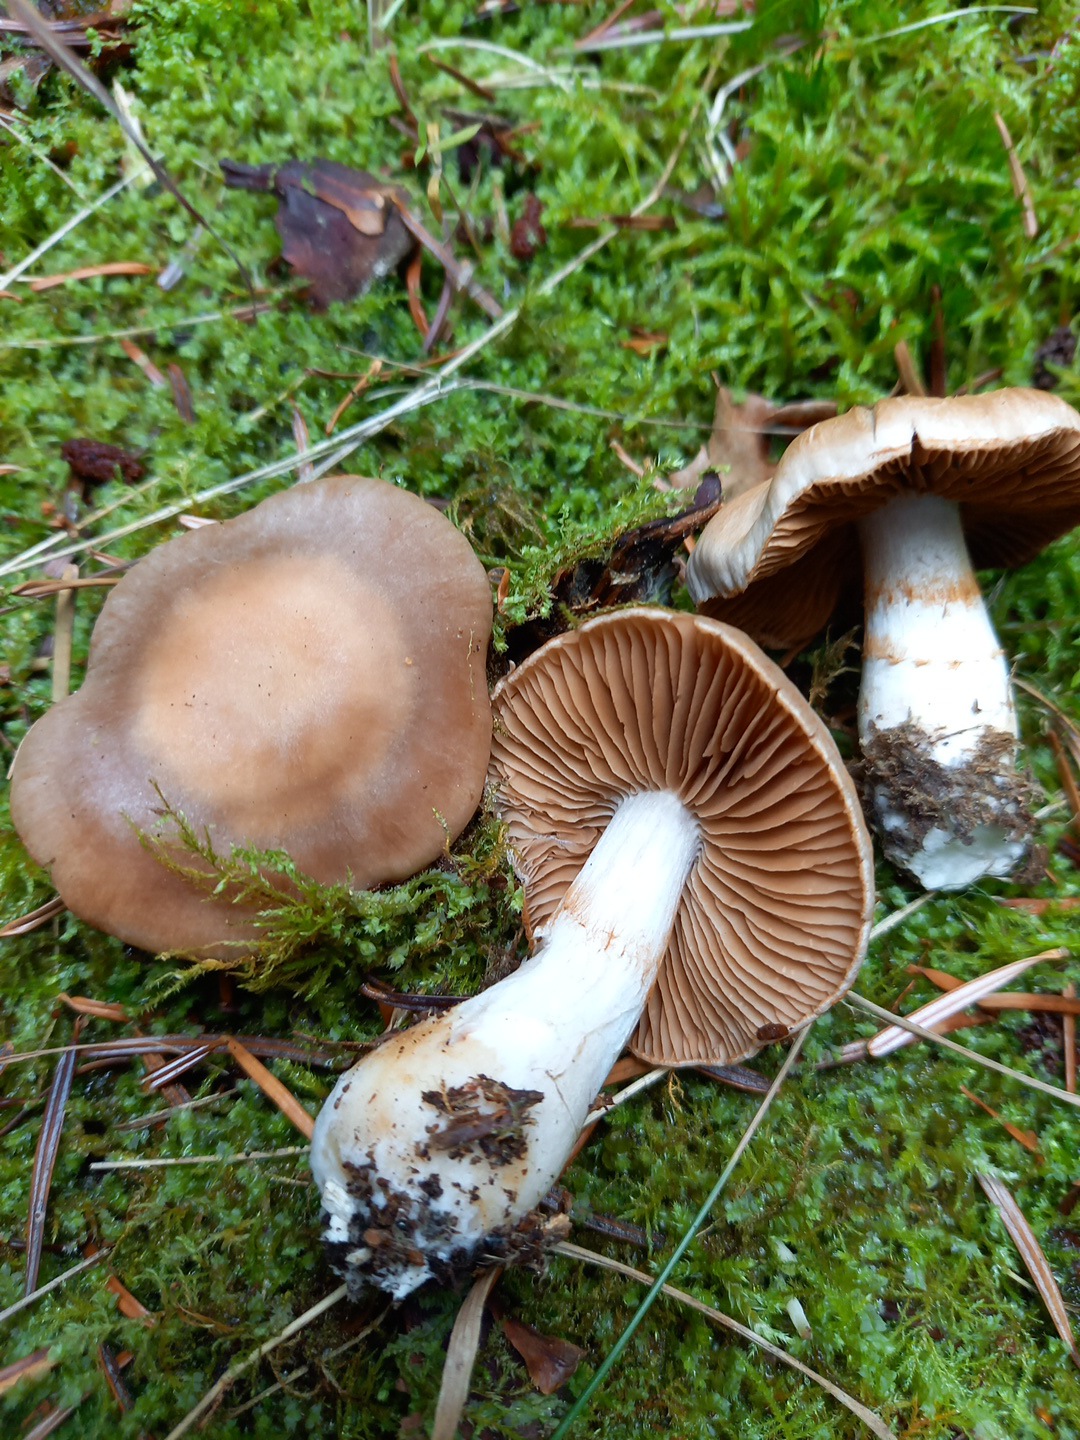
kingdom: Fungi
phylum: Basidiomycota
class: Agaricomycetes
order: Agaricales
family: Cortinariaceae
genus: Cortinarius
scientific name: Cortinarius
